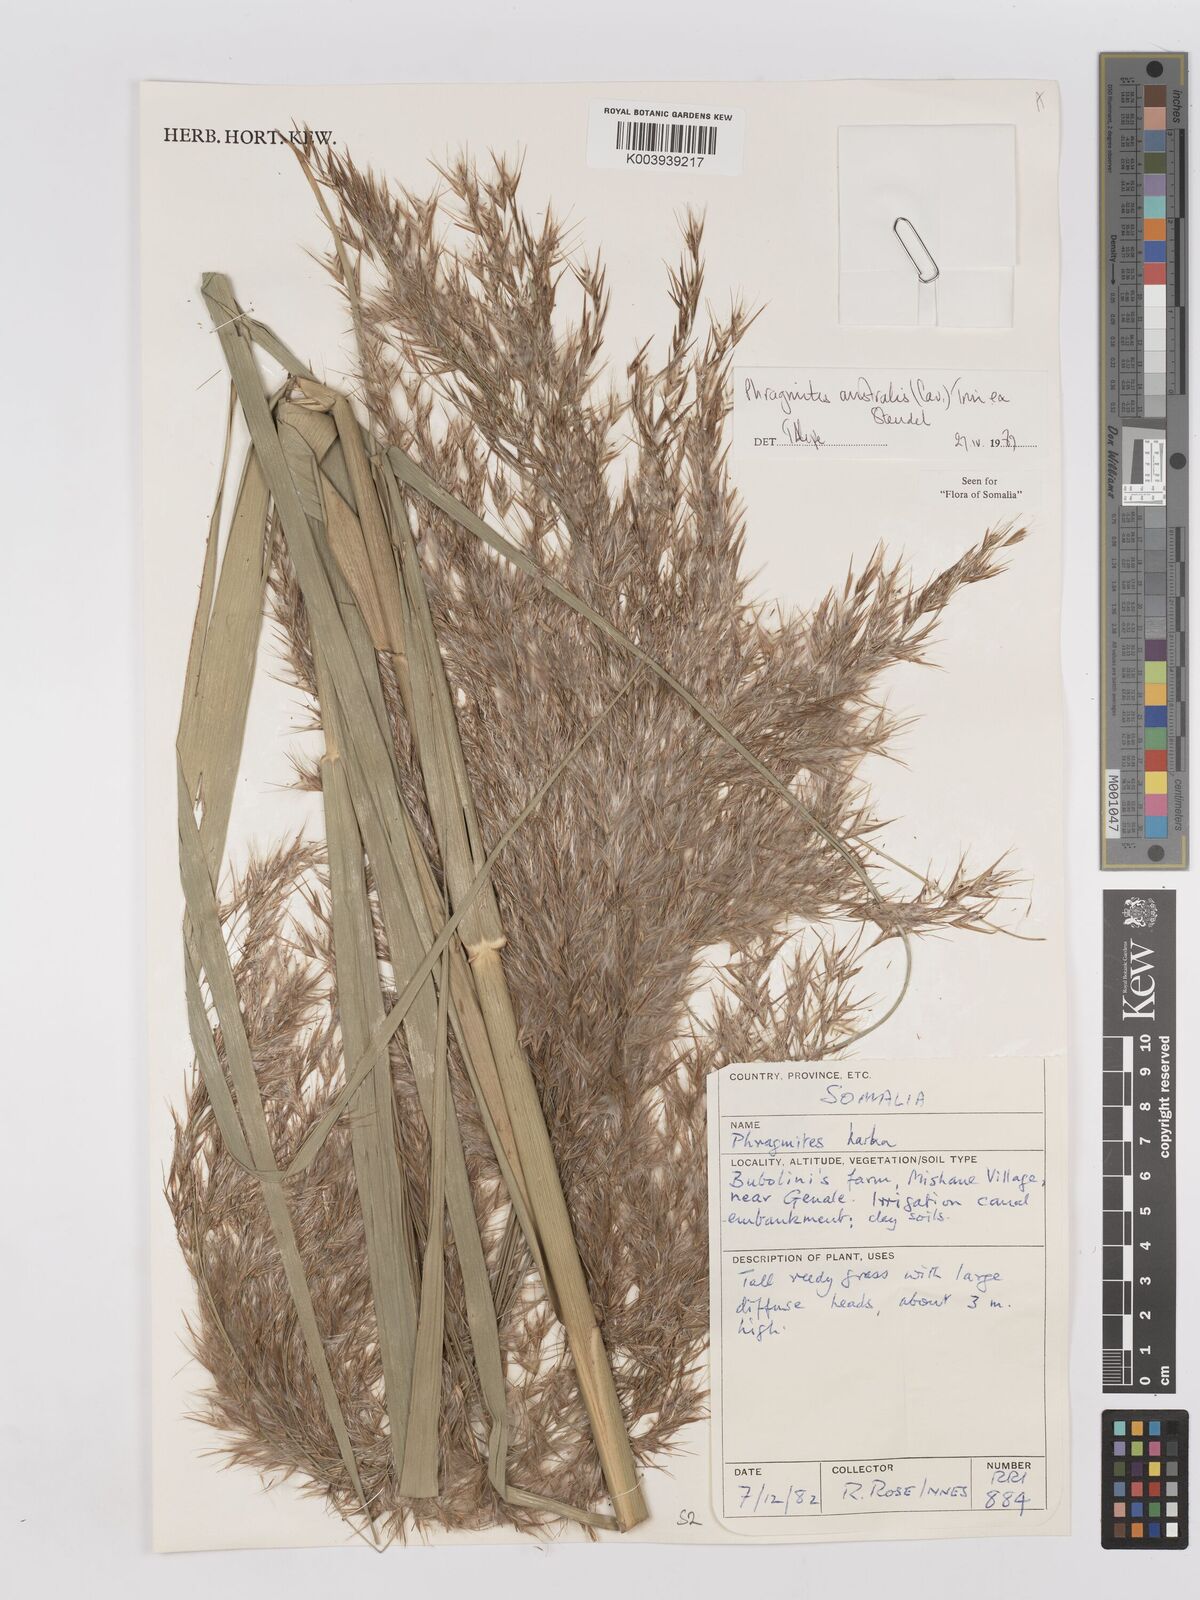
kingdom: Plantae
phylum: Tracheophyta
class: Liliopsida
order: Poales
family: Poaceae
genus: Phragmites
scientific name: Phragmites australis
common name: Common reed
